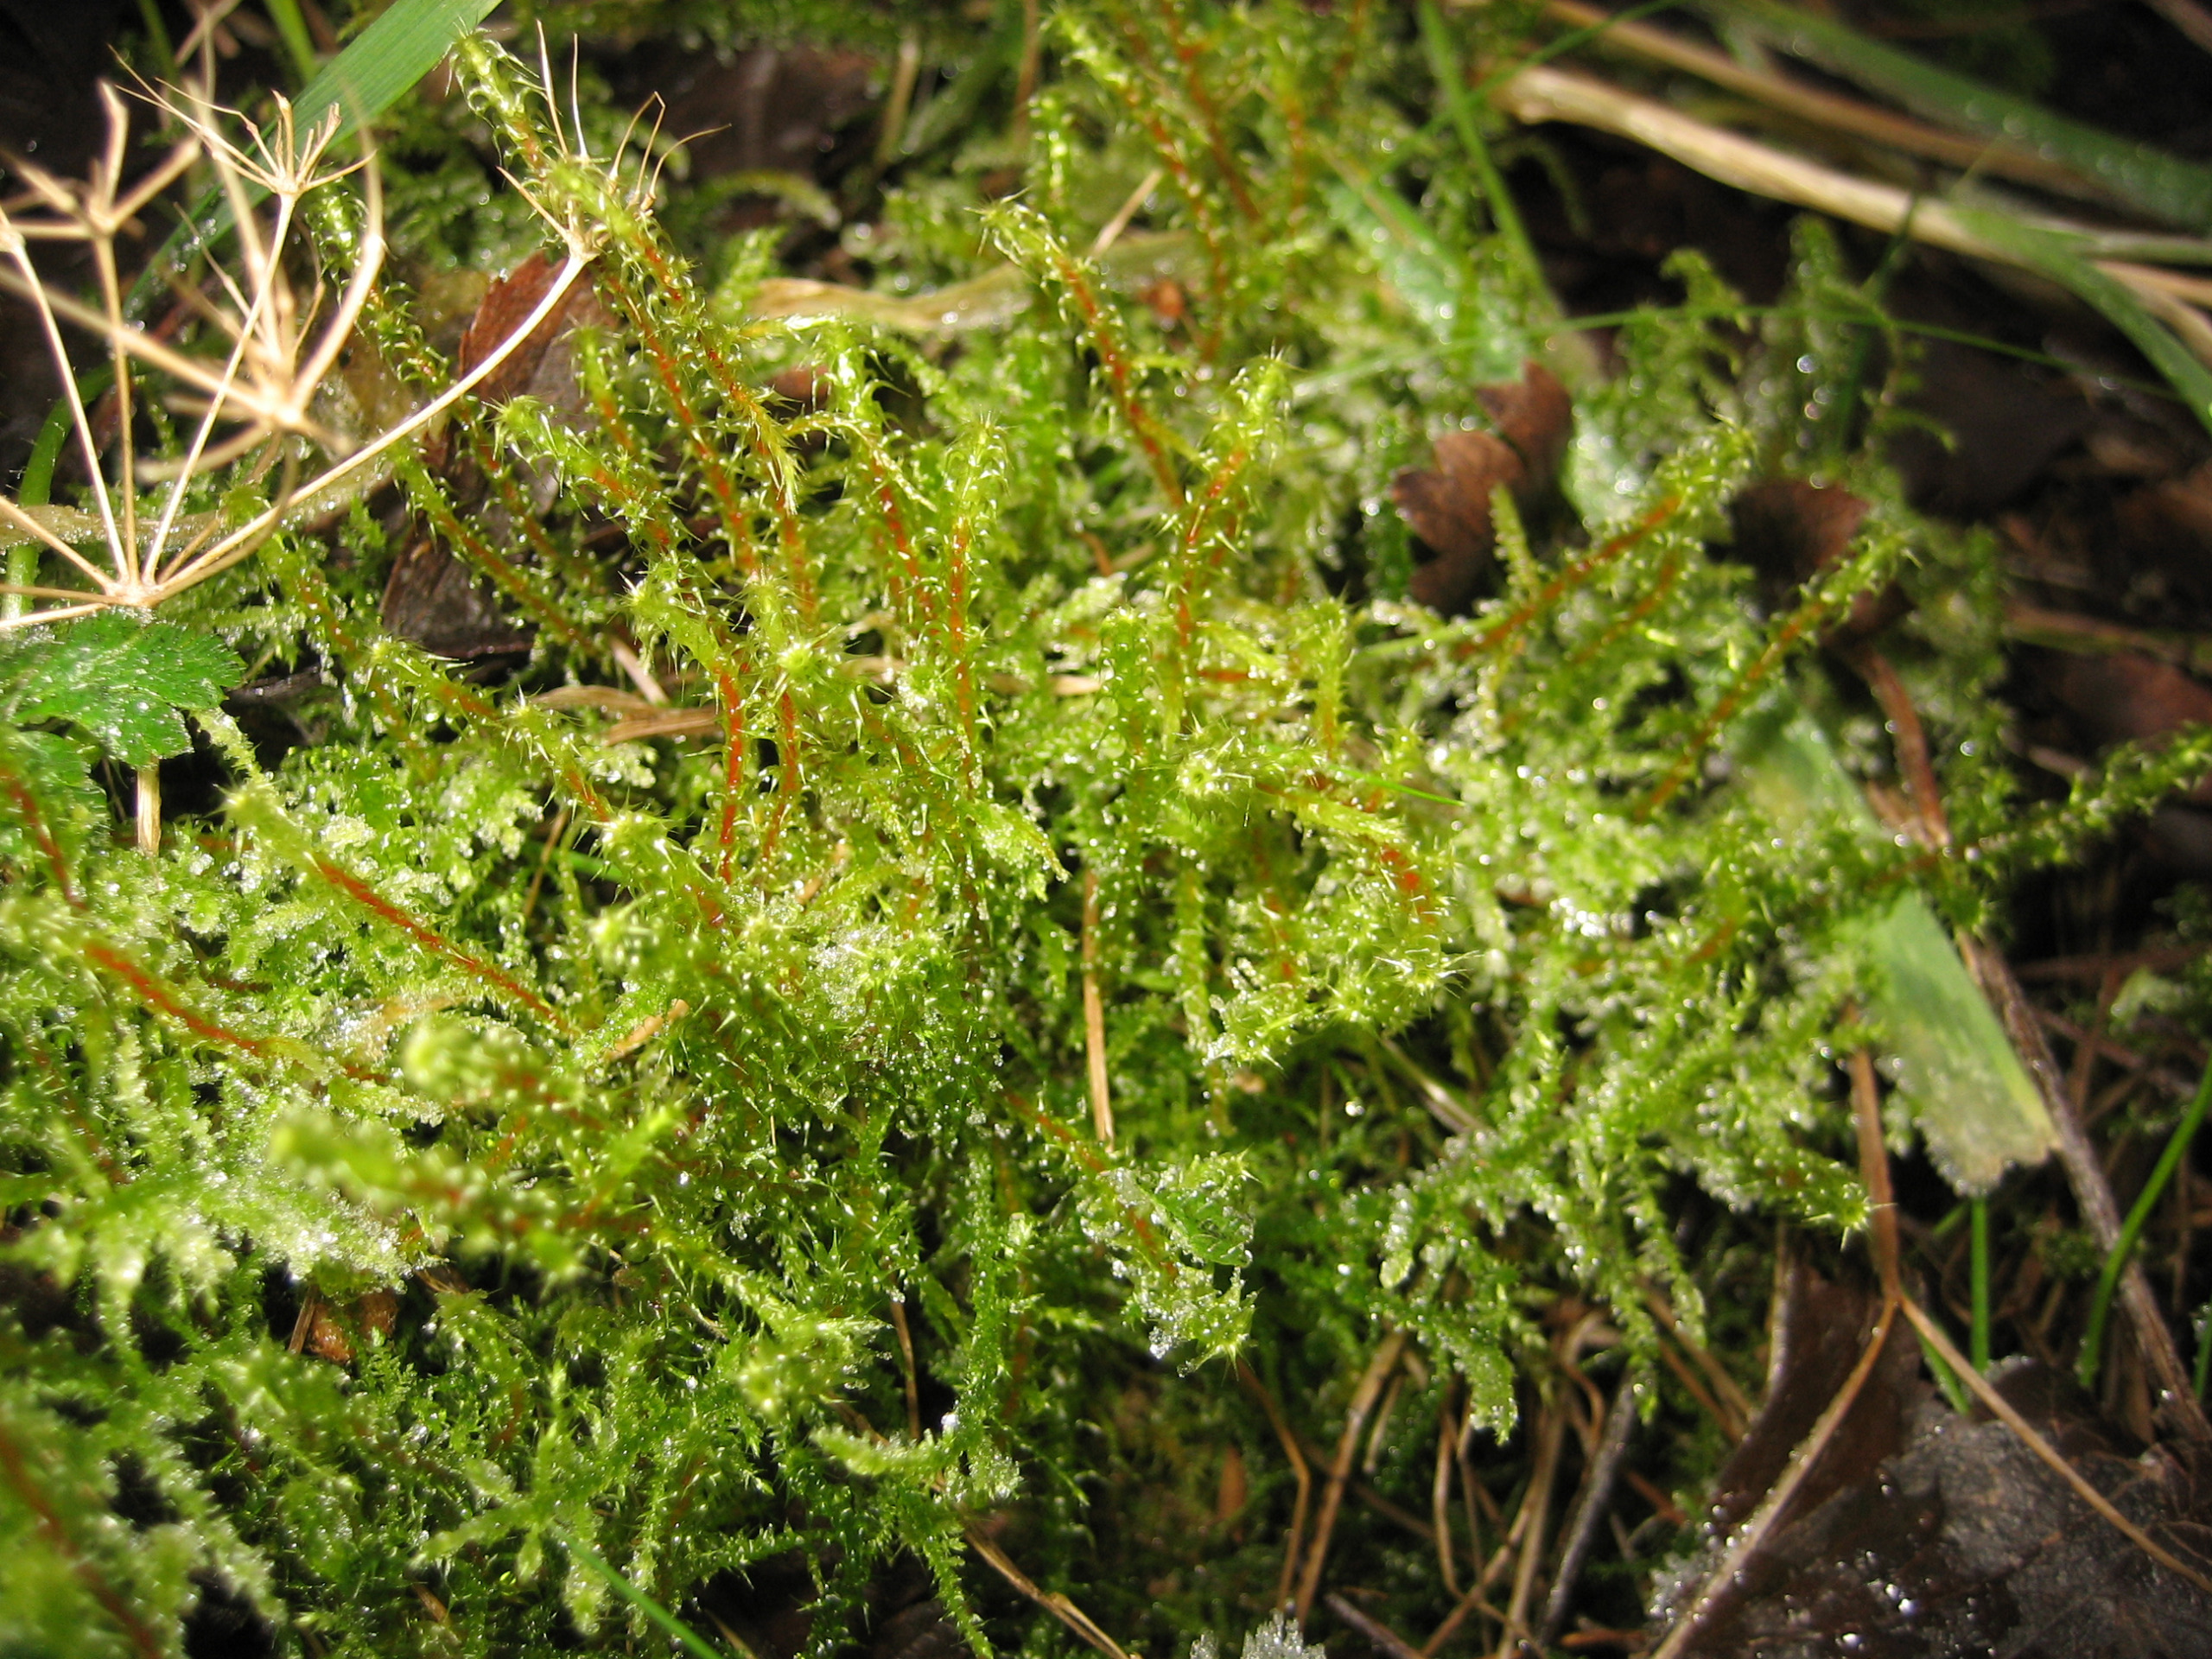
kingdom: Plantae
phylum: Bryophyta
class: Bryopsida
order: Hypnales
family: Hylocomiaceae
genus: Rhytidiadelphus
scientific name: Rhytidiadelphus squarrosus
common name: Plæne-kransemos
